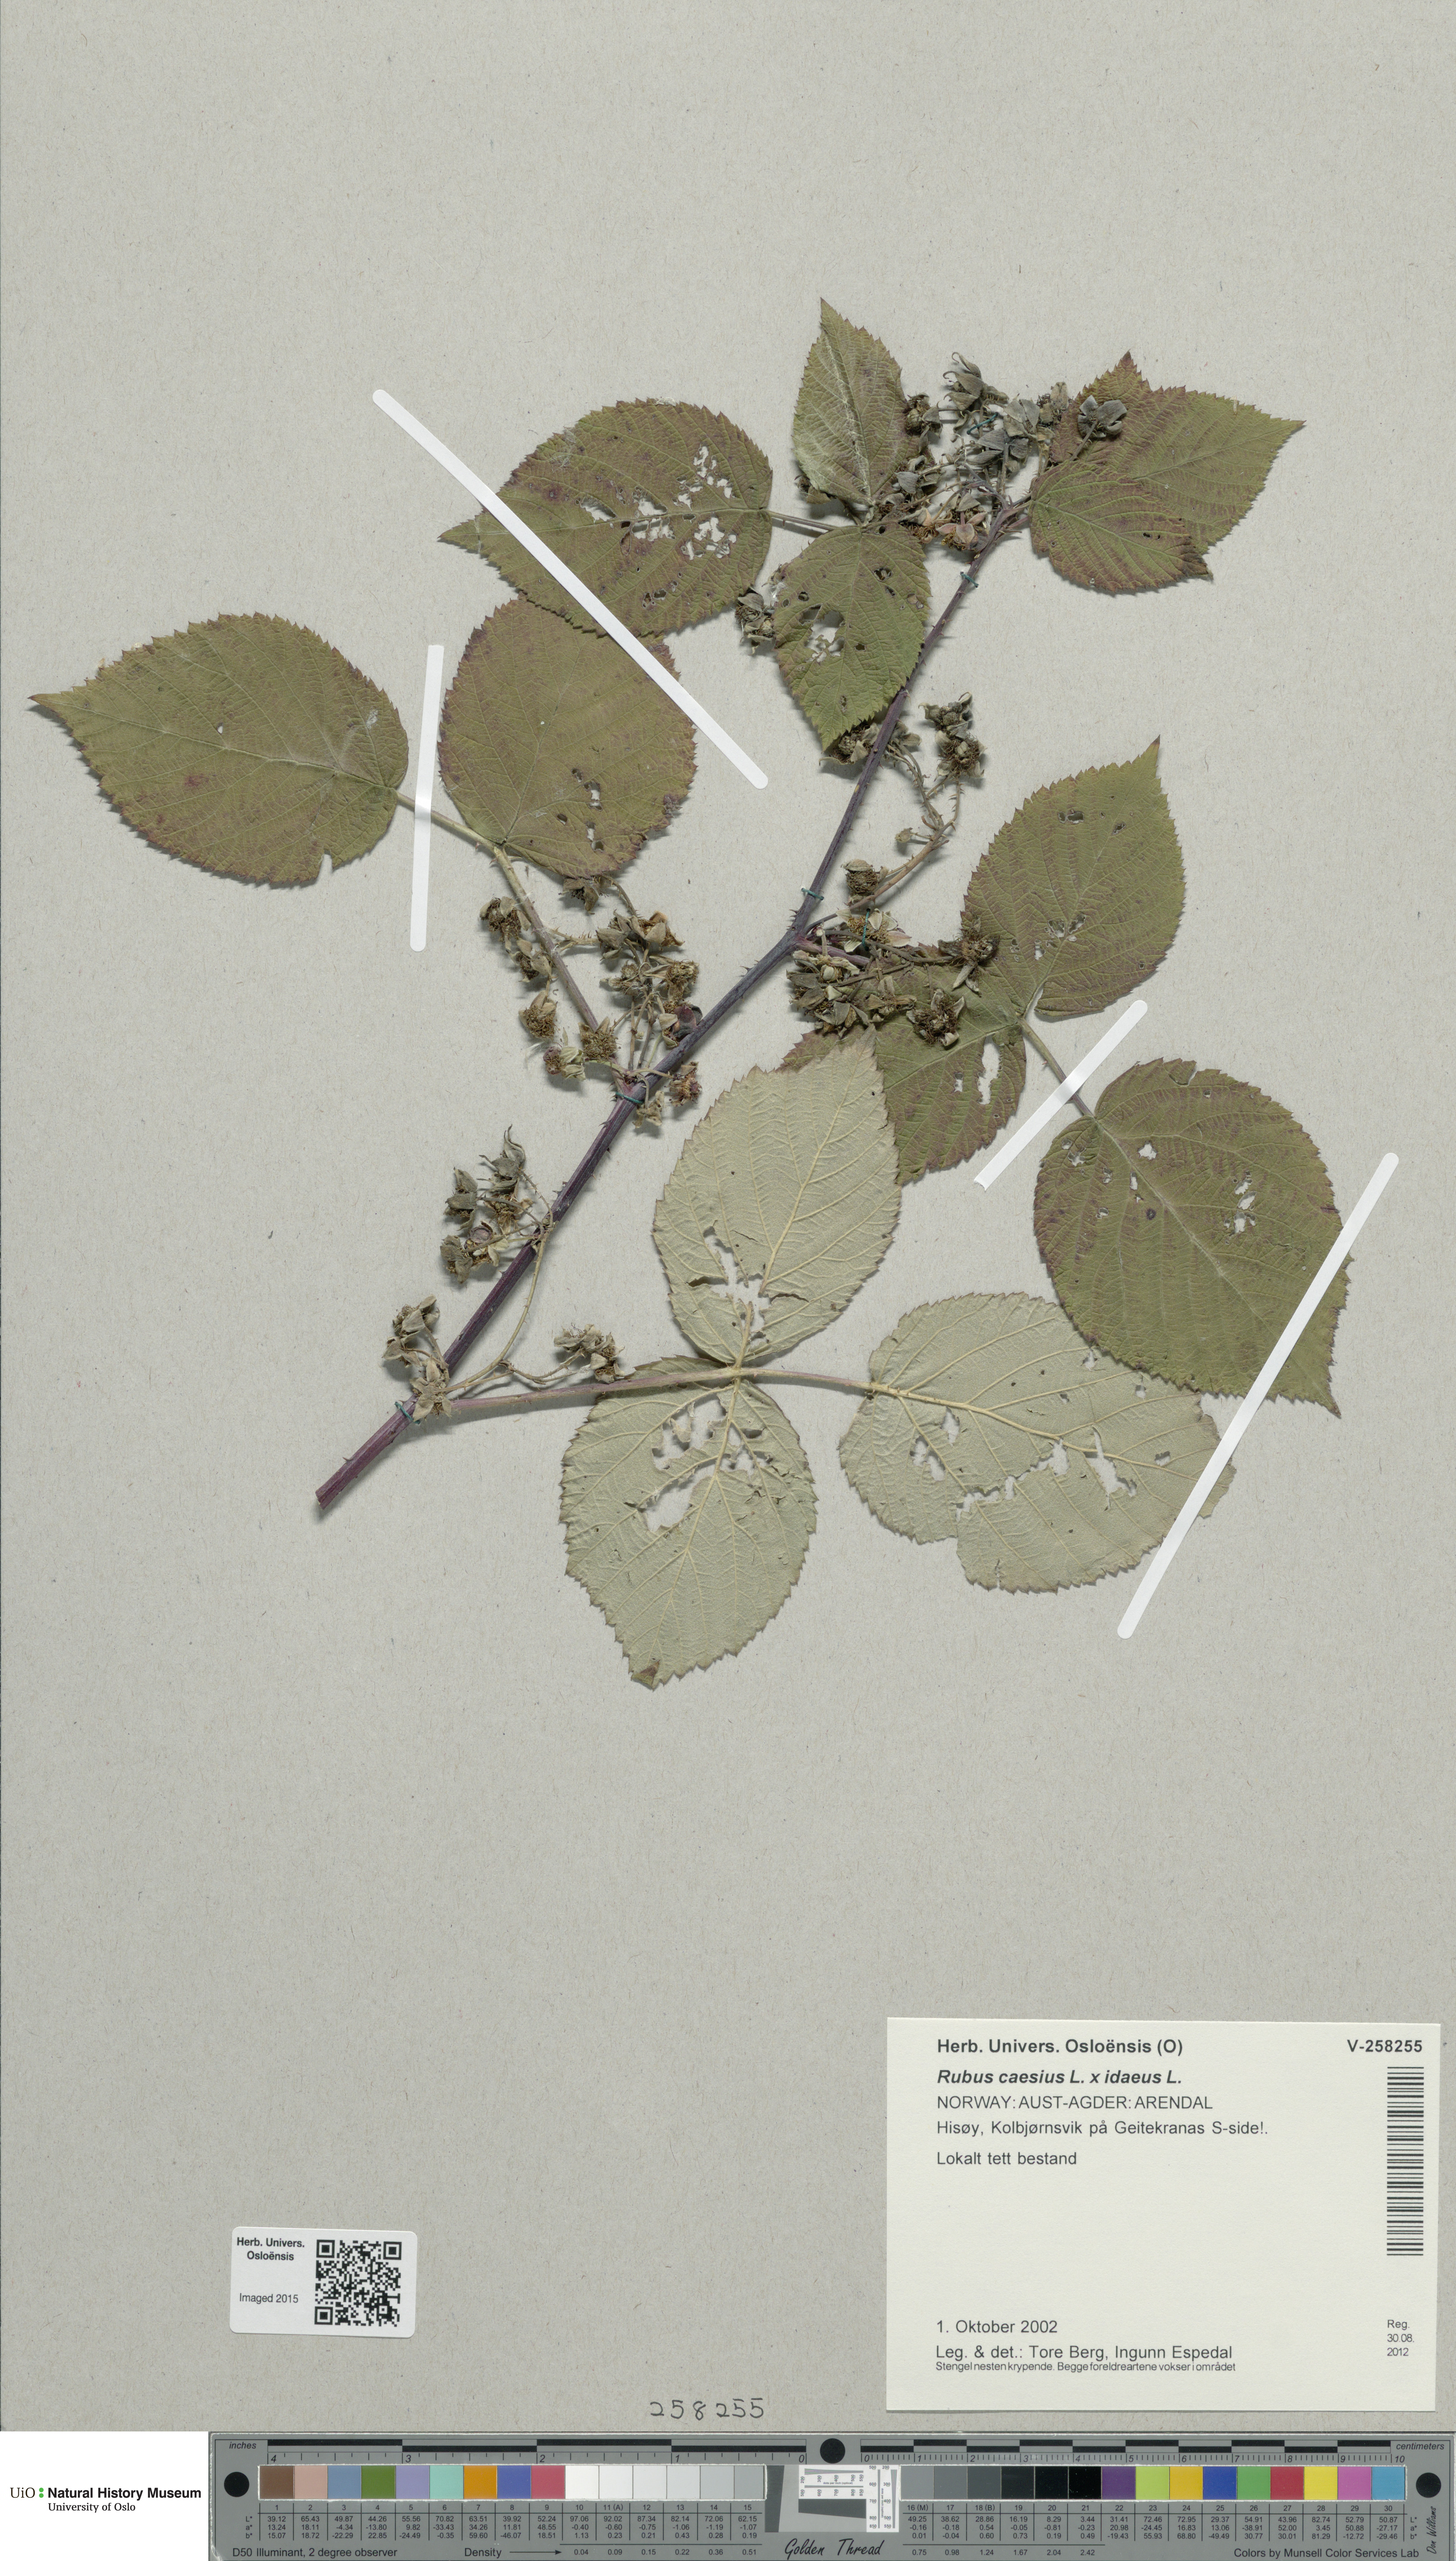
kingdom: Plantae
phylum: Tracheophyta
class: Magnoliopsida
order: Rosales
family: Rosaceae
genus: Rubus
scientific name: Rubus
